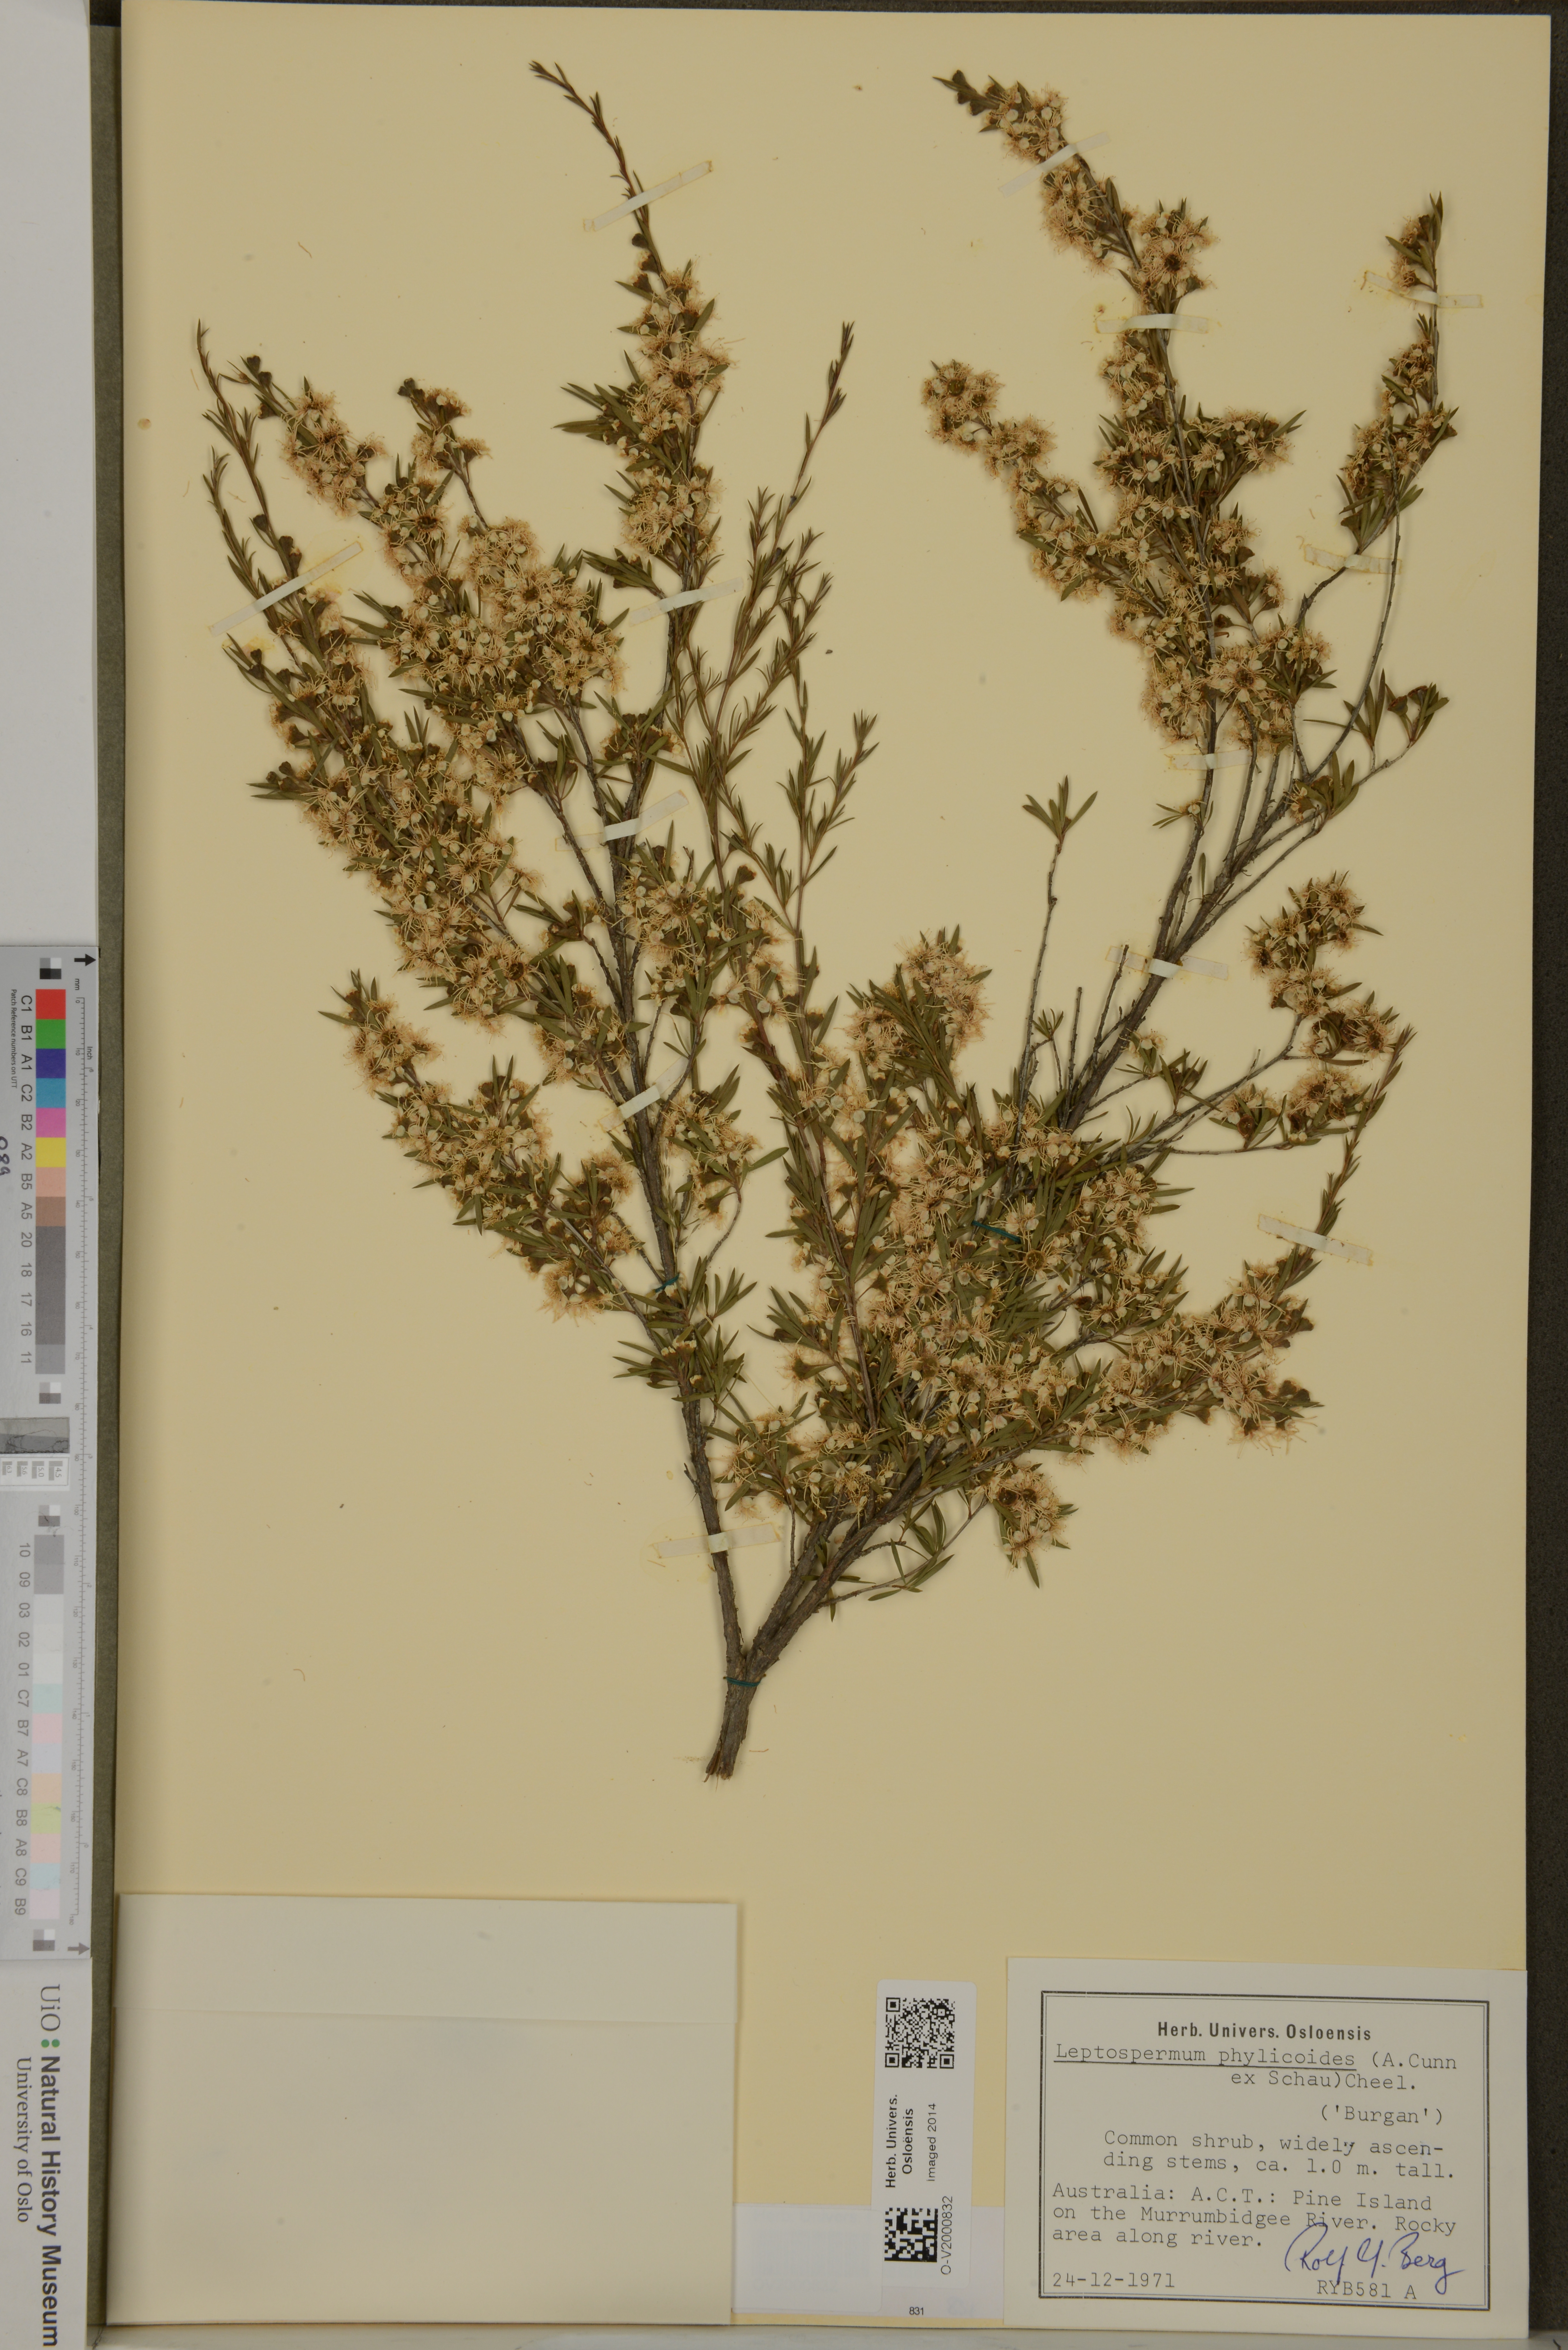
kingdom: Plantae
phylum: Tracheophyta
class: Magnoliopsida
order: Myrtales
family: Myrtaceae
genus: Kunzea
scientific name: Kunzea ericoides
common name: Burgan
